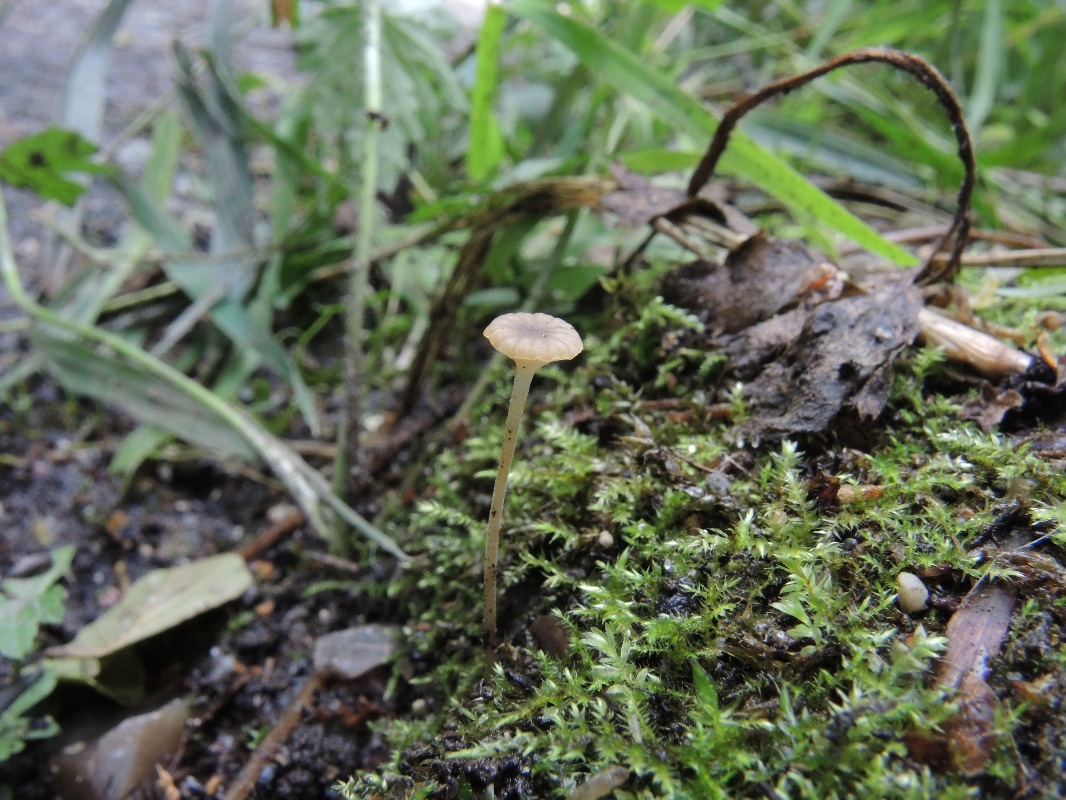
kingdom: Fungi
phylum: Basidiomycota
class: Agaricomycetes
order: Agaricales
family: Porotheleaceae
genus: Phloeomana
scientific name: Phloeomana speirea
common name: kvist-huesvamp
